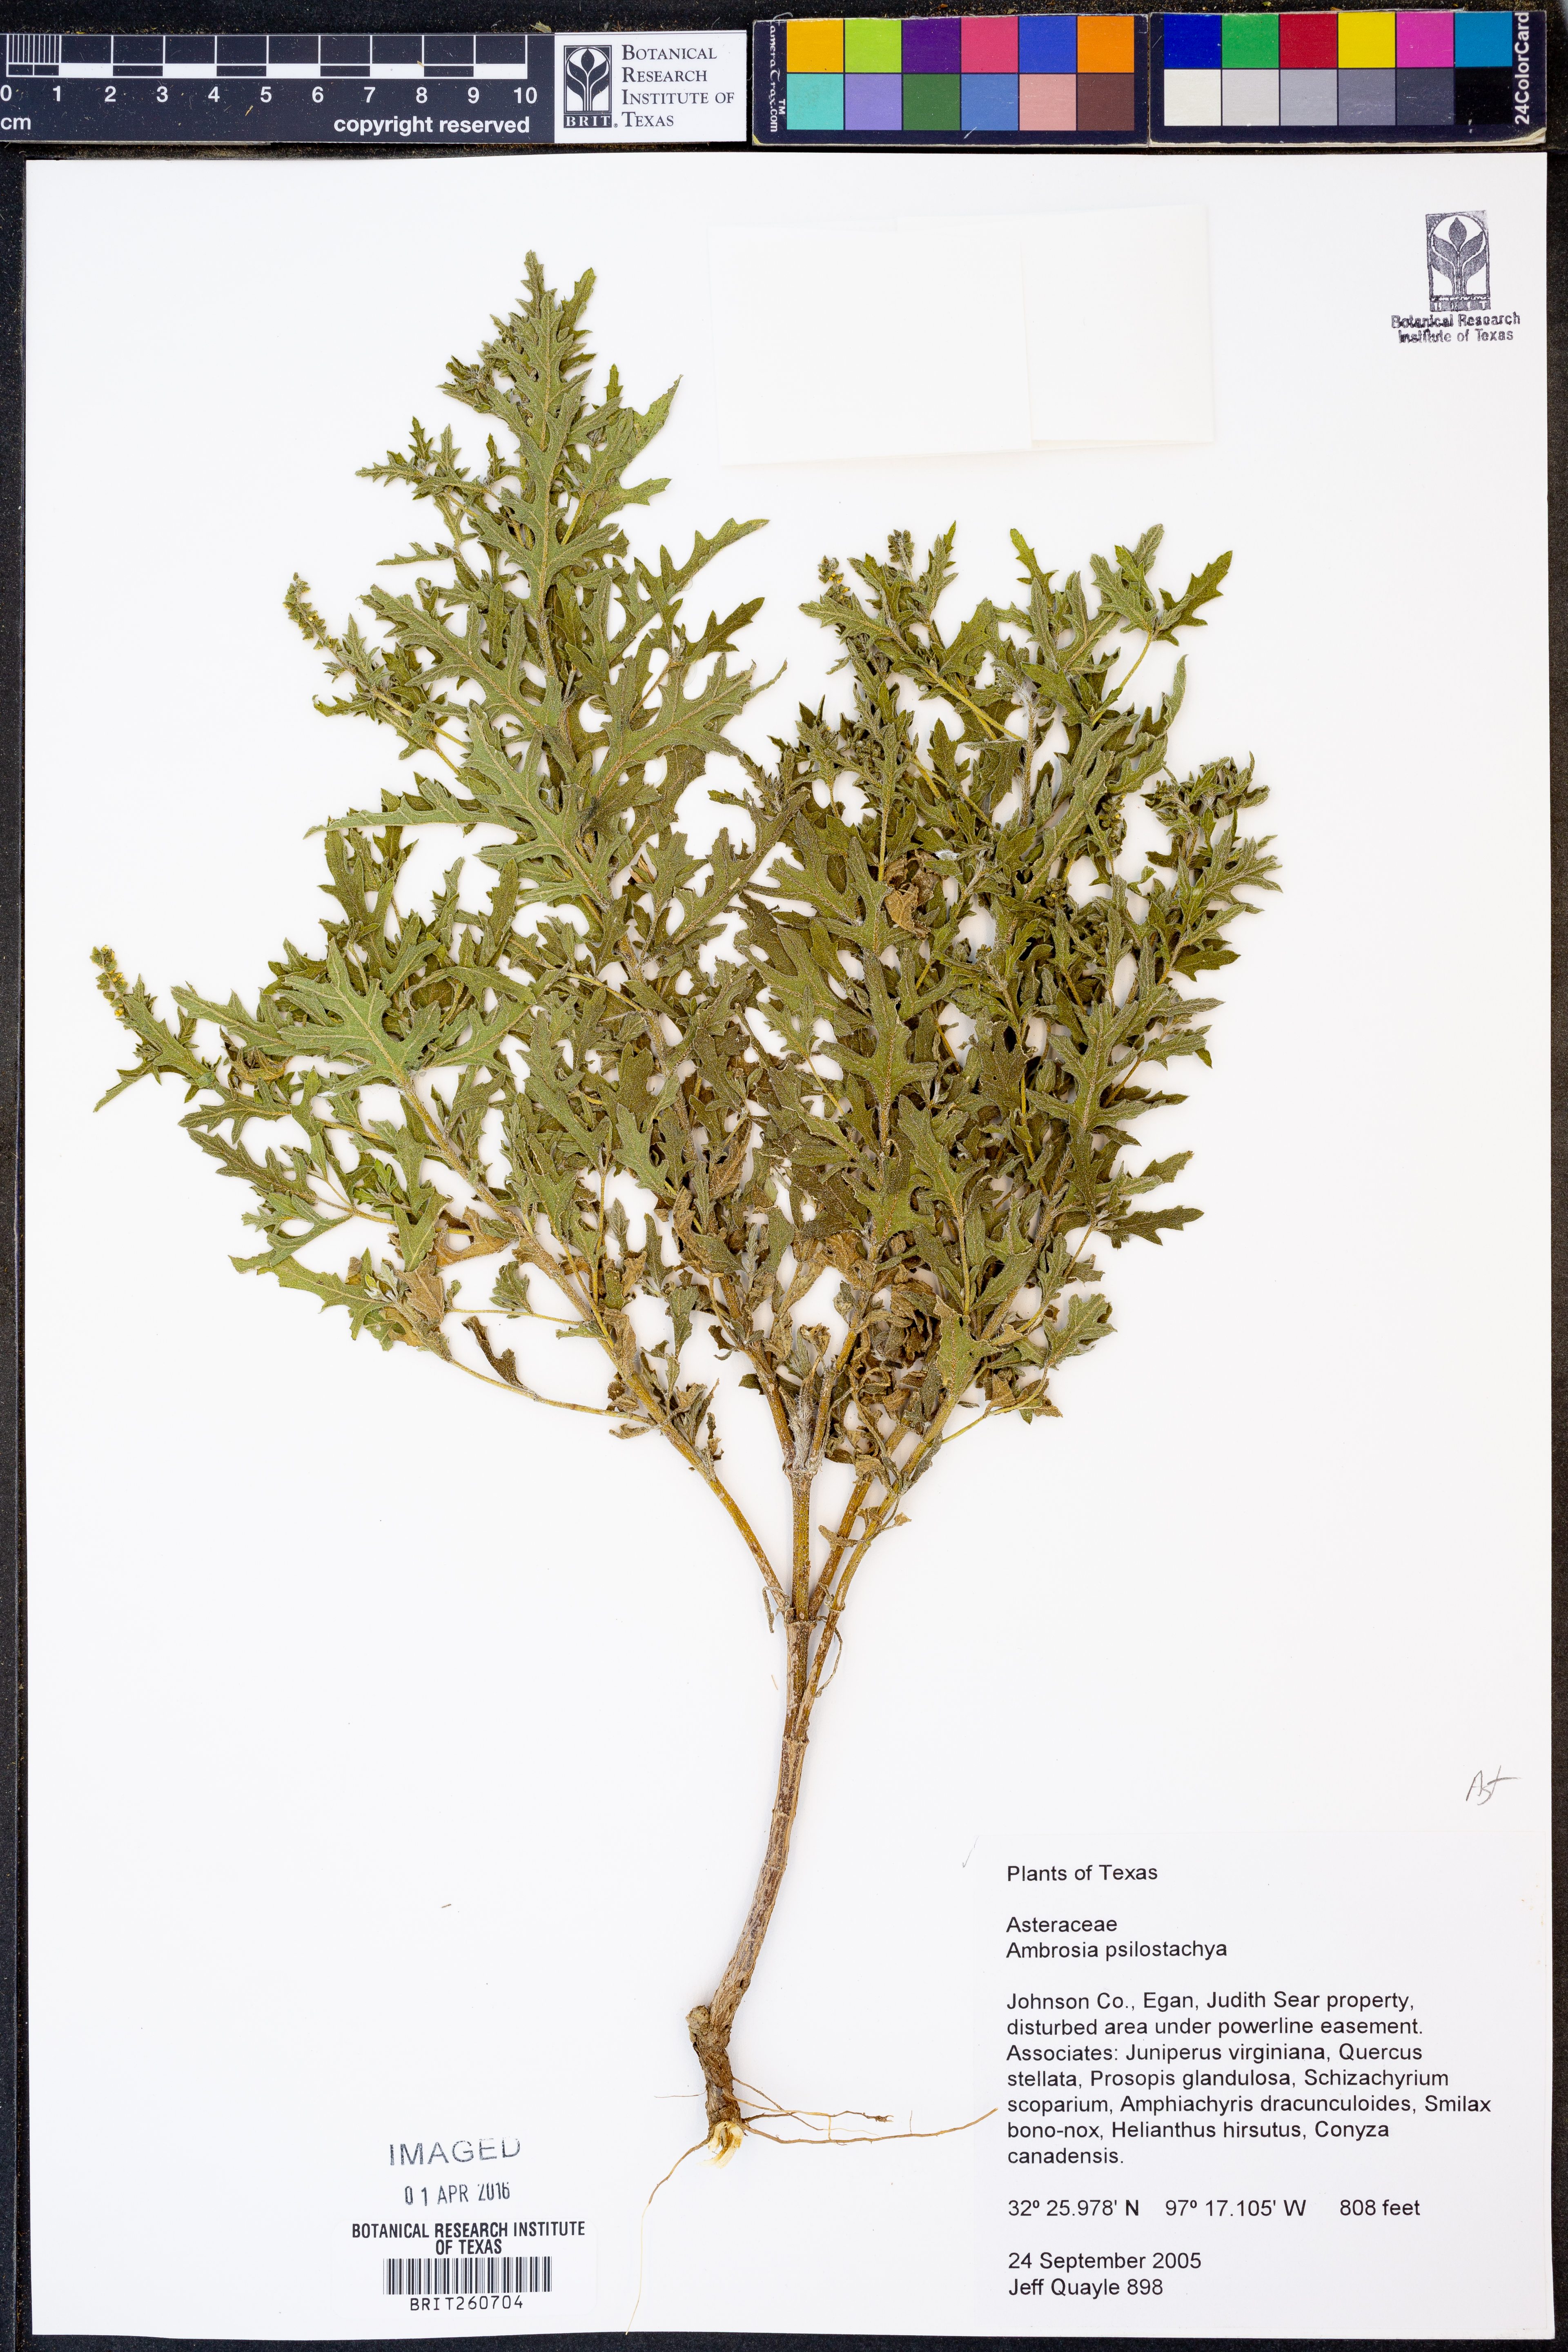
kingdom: Plantae
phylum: Tracheophyta
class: Magnoliopsida
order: Asterales
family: Asteraceae
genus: Ambrosia
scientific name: Ambrosia psilostachya
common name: Perennial ragweed
